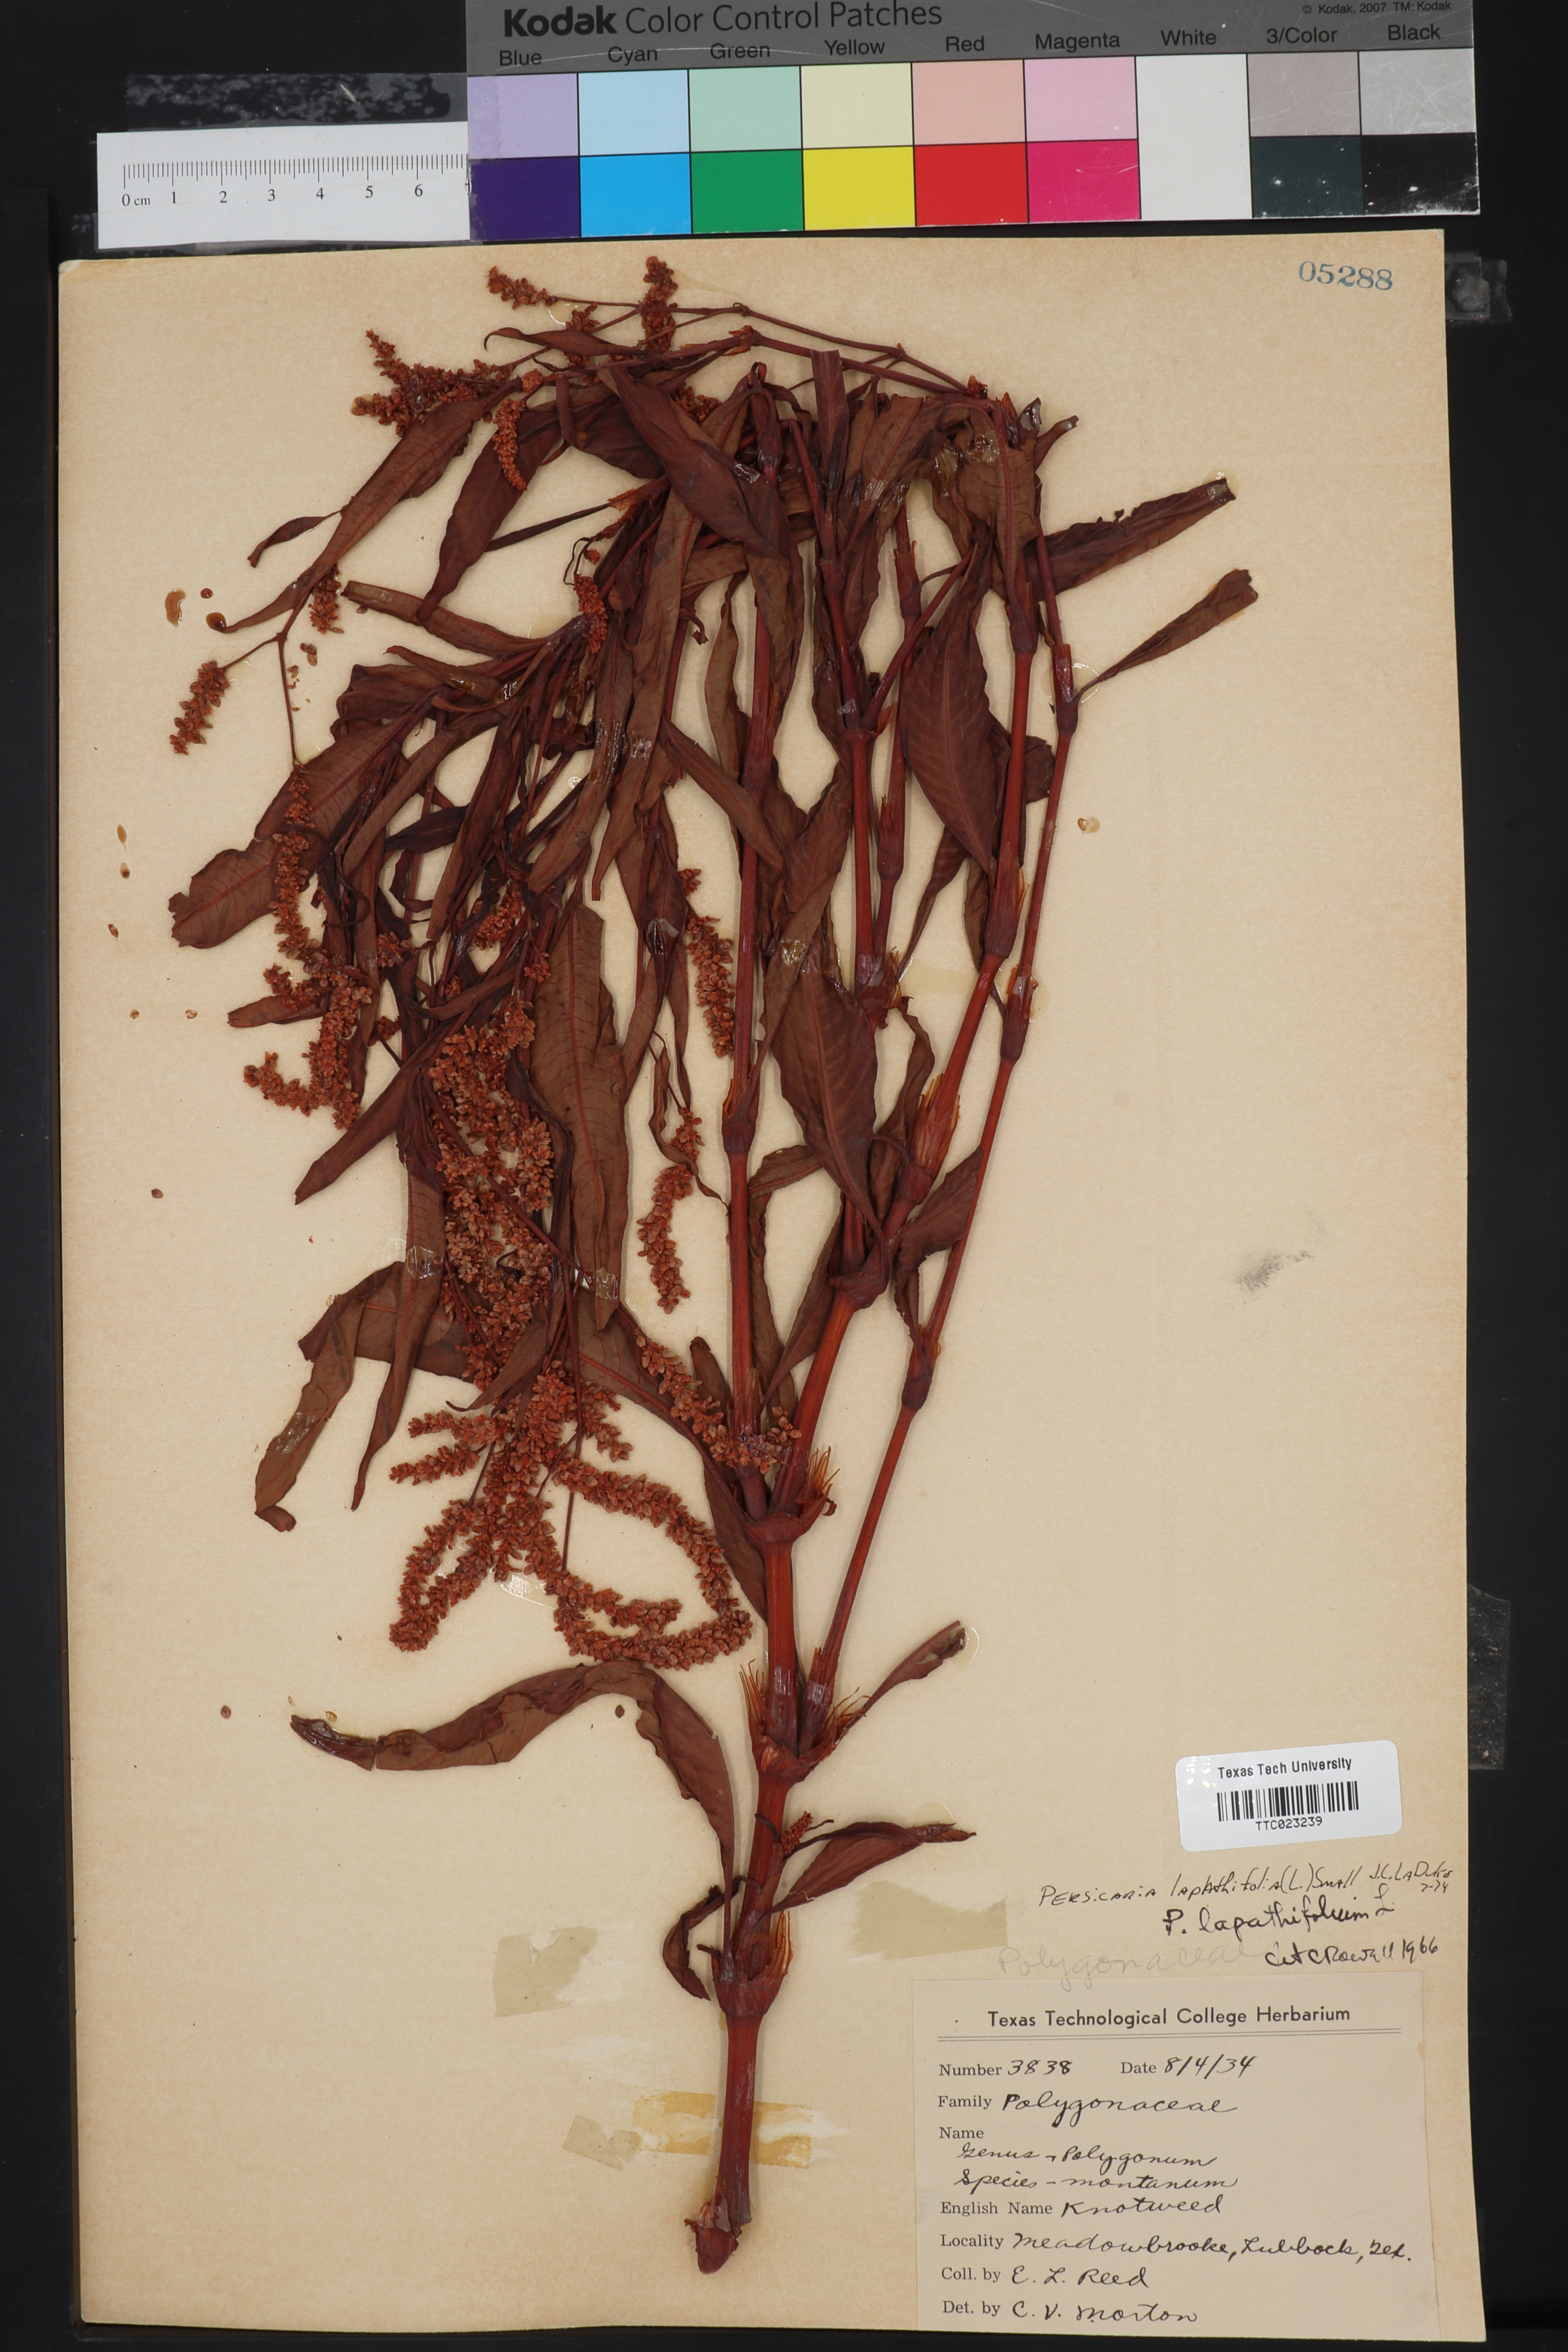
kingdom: Plantae
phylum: Tracheophyta
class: Magnoliopsida
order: Caryophyllales
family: Polygonaceae
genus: Persicaria
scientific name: Persicaria lapathifolia
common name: Curlytop knotweed
